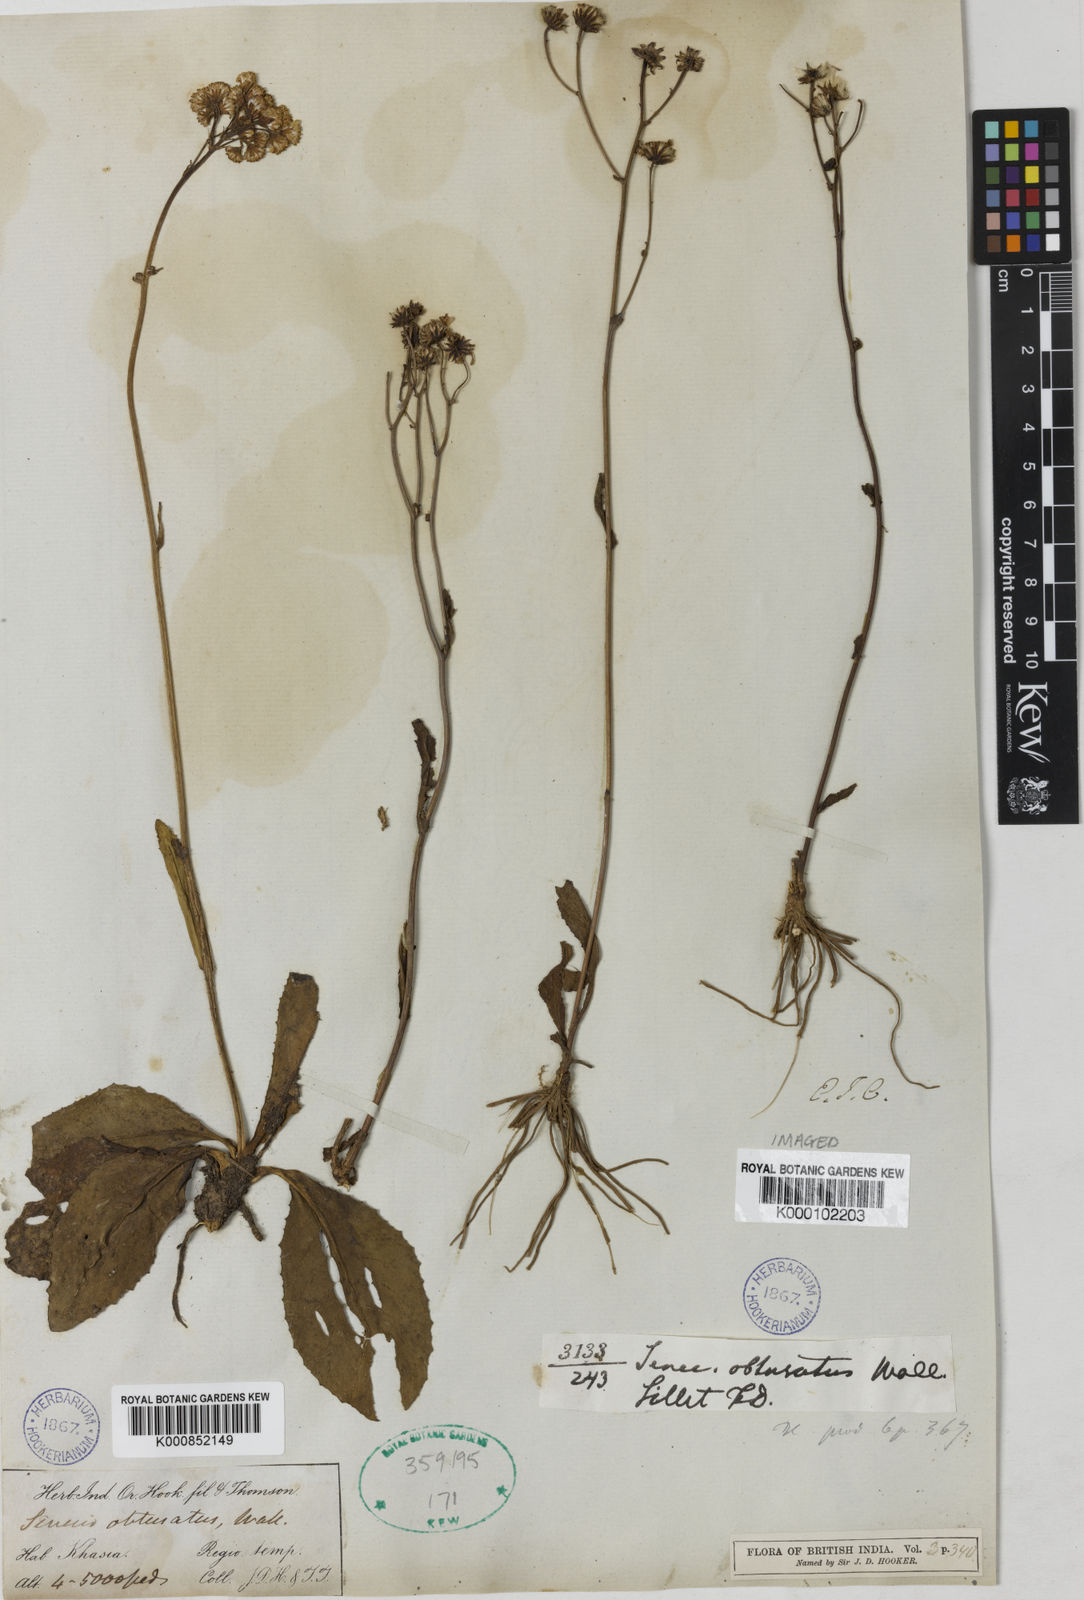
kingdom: Plantae
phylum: Tracheophyta
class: Magnoliopsida
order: Asterales
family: Asteraceae
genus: Senecio
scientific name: Senecio obtusatus
